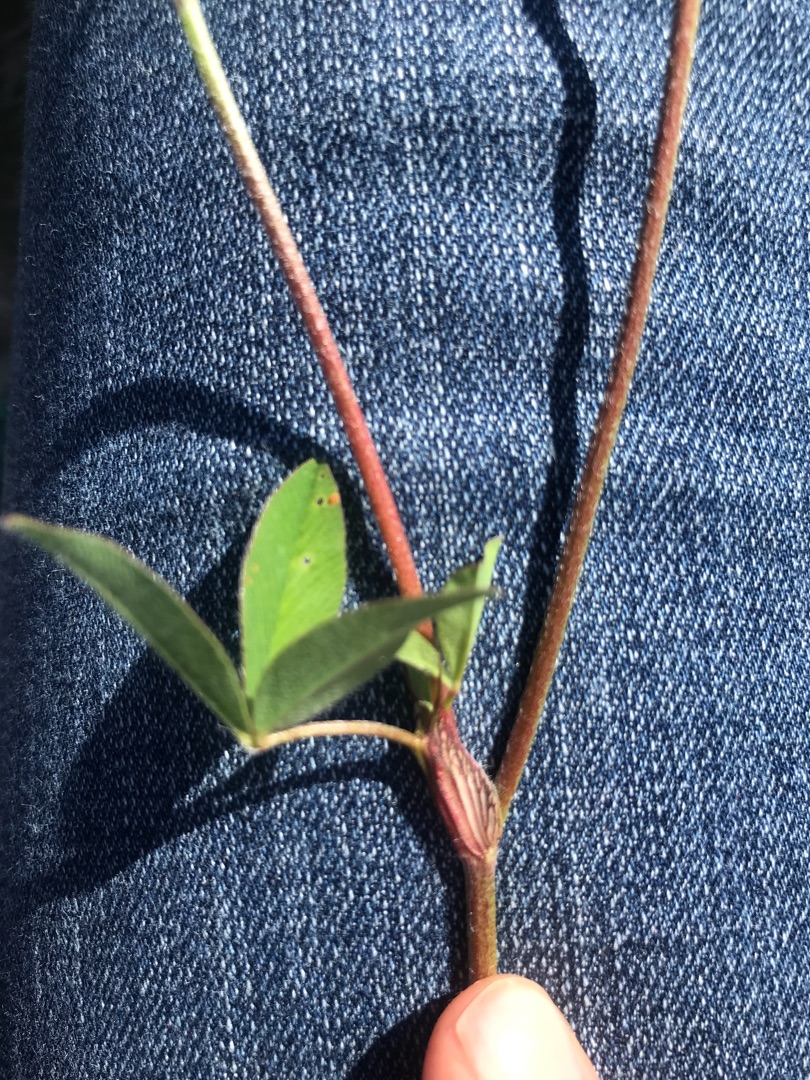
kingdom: Plantae
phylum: Tracheophyta
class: Magnoliopsida
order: Fabales
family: Fabaceae
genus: Trifolium
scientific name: Trifolium pratense
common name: Rød-kløver
